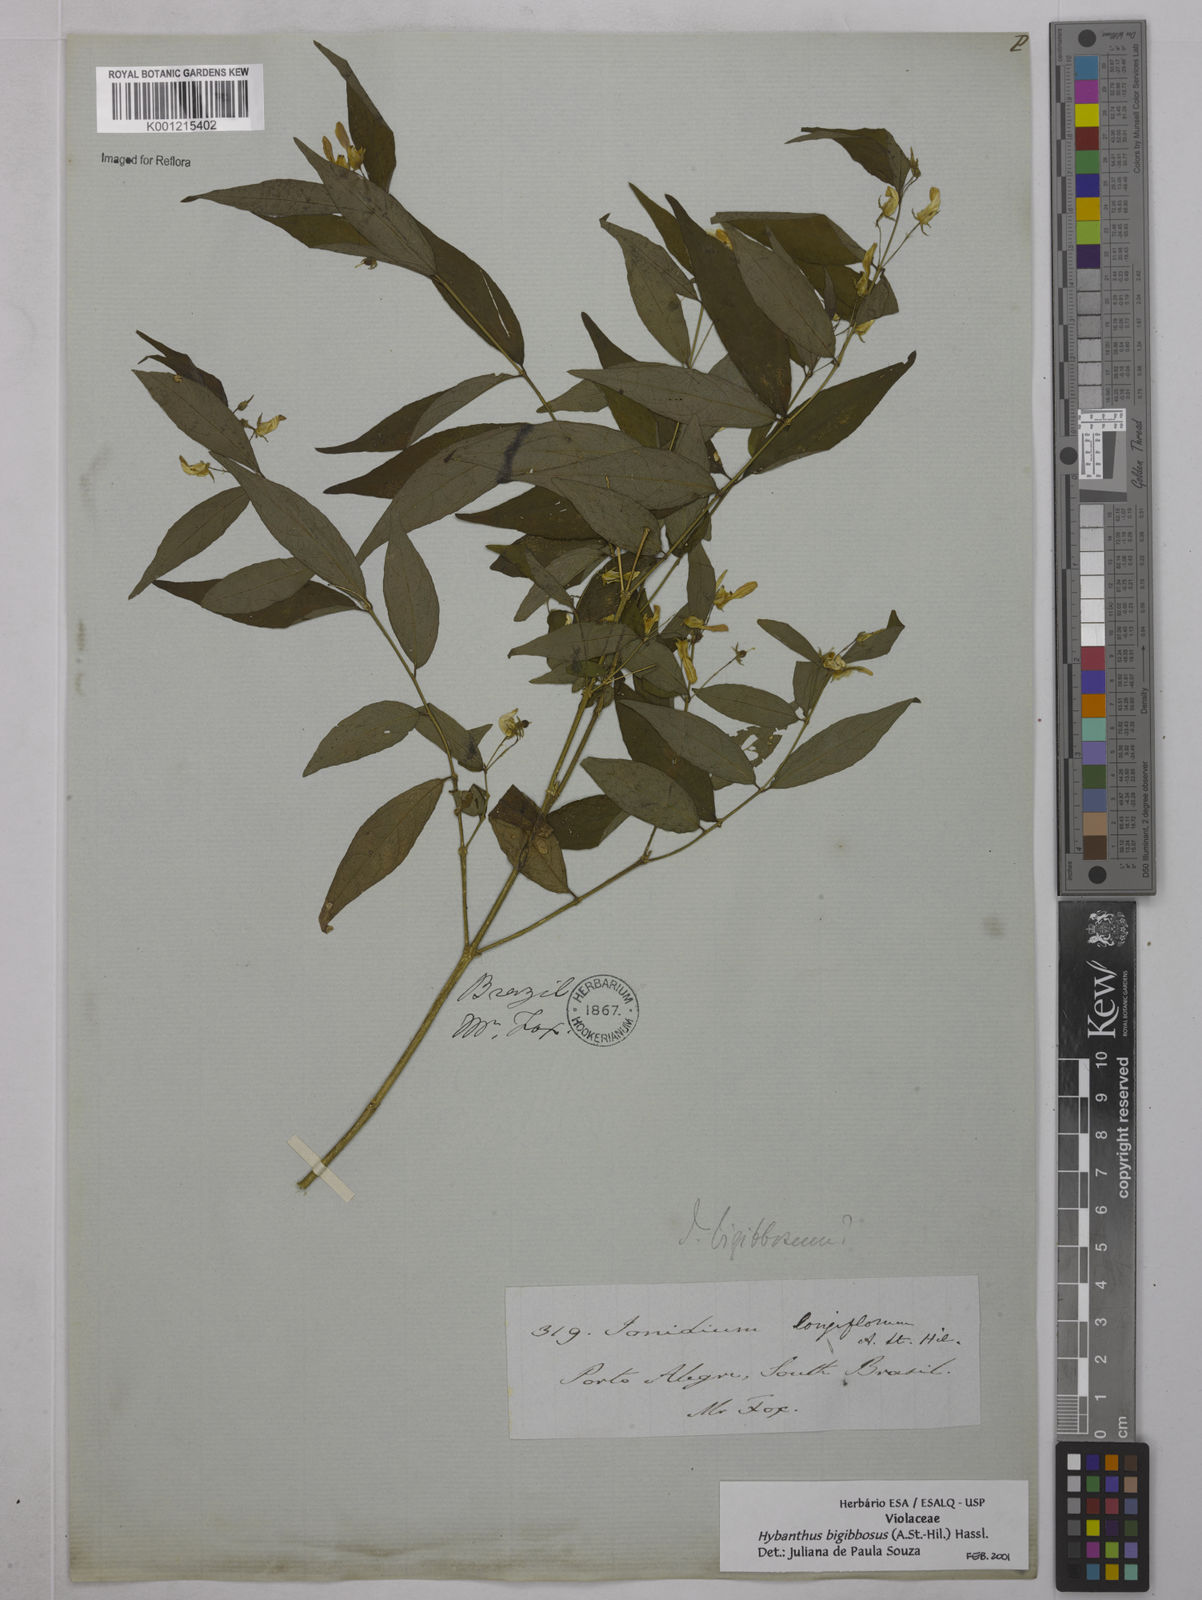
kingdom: Plantae
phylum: Tracheophyta
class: Magnoliopsida
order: Malpighiales
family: Violaceae
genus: Pombalia
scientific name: Pombalia bigibbosa
